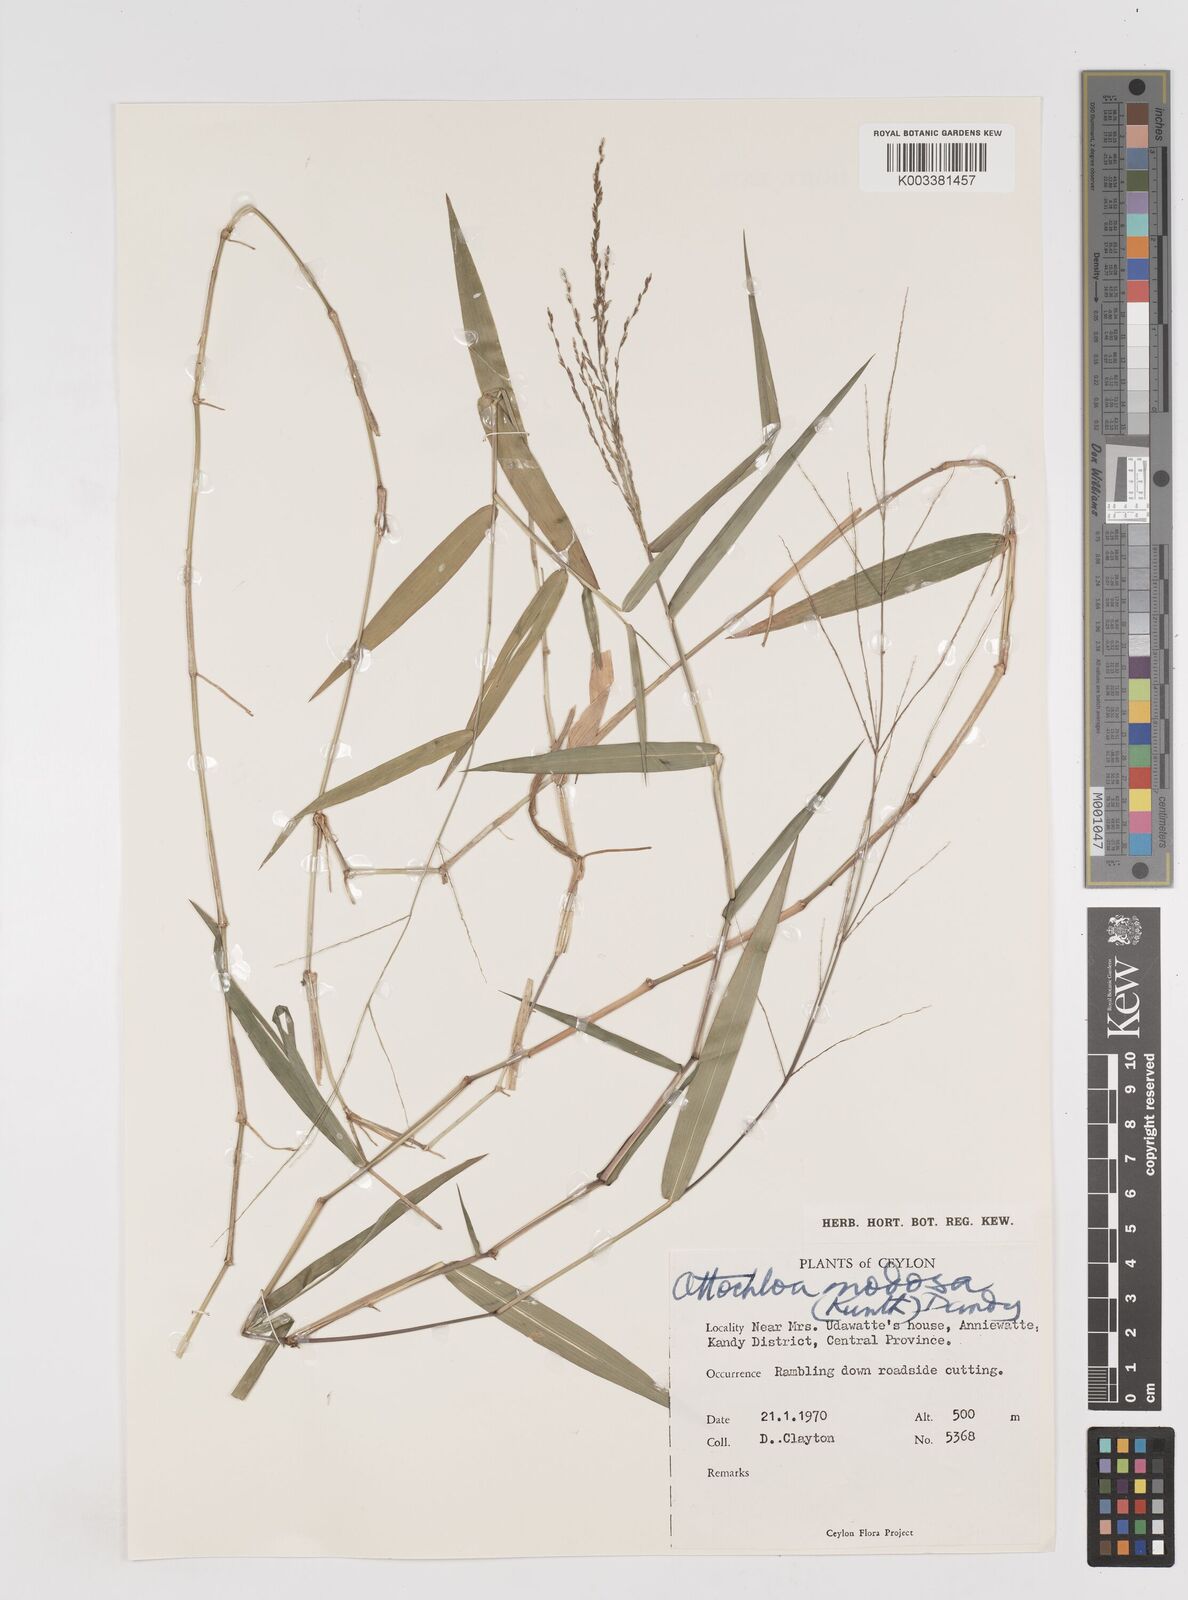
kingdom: Plantae
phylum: Tracheophyta
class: Liliopsida
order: Poales
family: Poaceae
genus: Ottochloa
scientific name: Ottochloa nodosa
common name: Slender-panic grass
